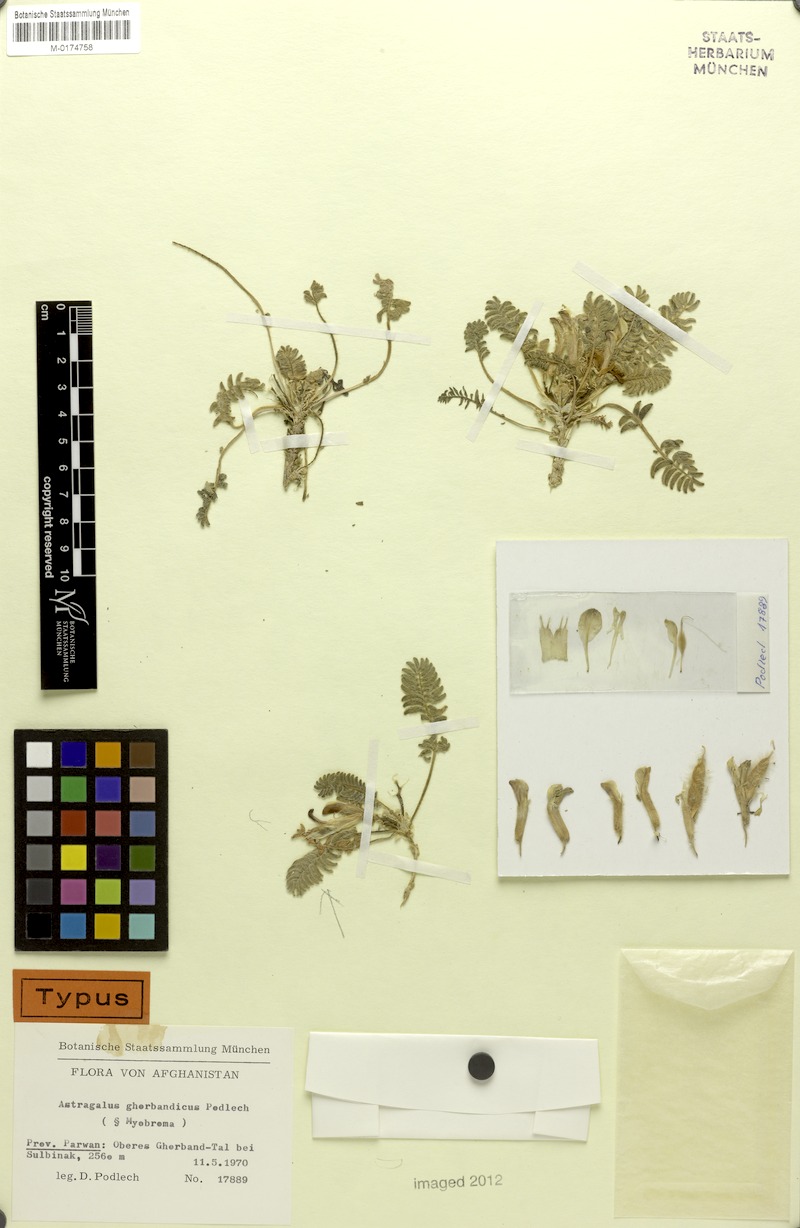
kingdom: Plantae
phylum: Tracheophyta
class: Magnoliopsida
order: Fabales
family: Fabaceae
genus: Astragalus
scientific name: Astragalus ghorbandicus
